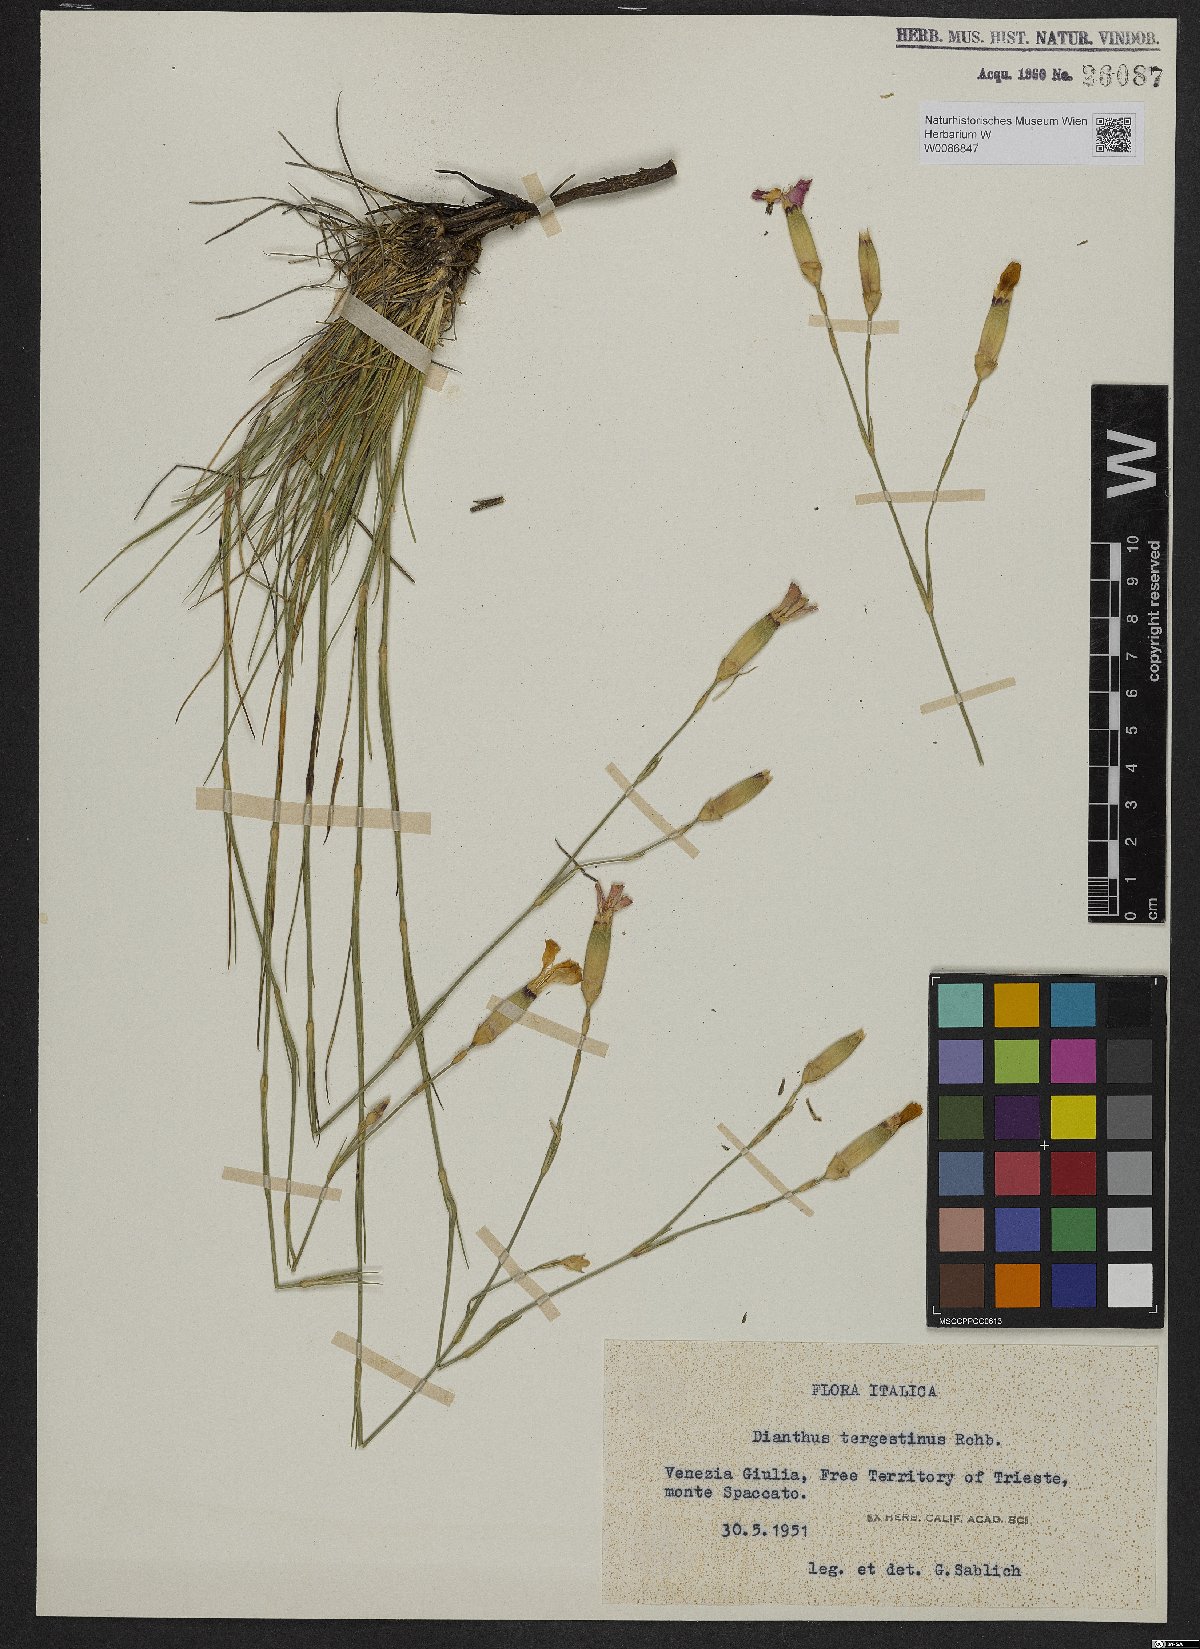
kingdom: Plantae
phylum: Tracheophyta
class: Magnoliopsida
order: Caryophyllales
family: Caryophyllaceae
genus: Dianthus
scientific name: Dianthus sylvestris
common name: Wood pink
